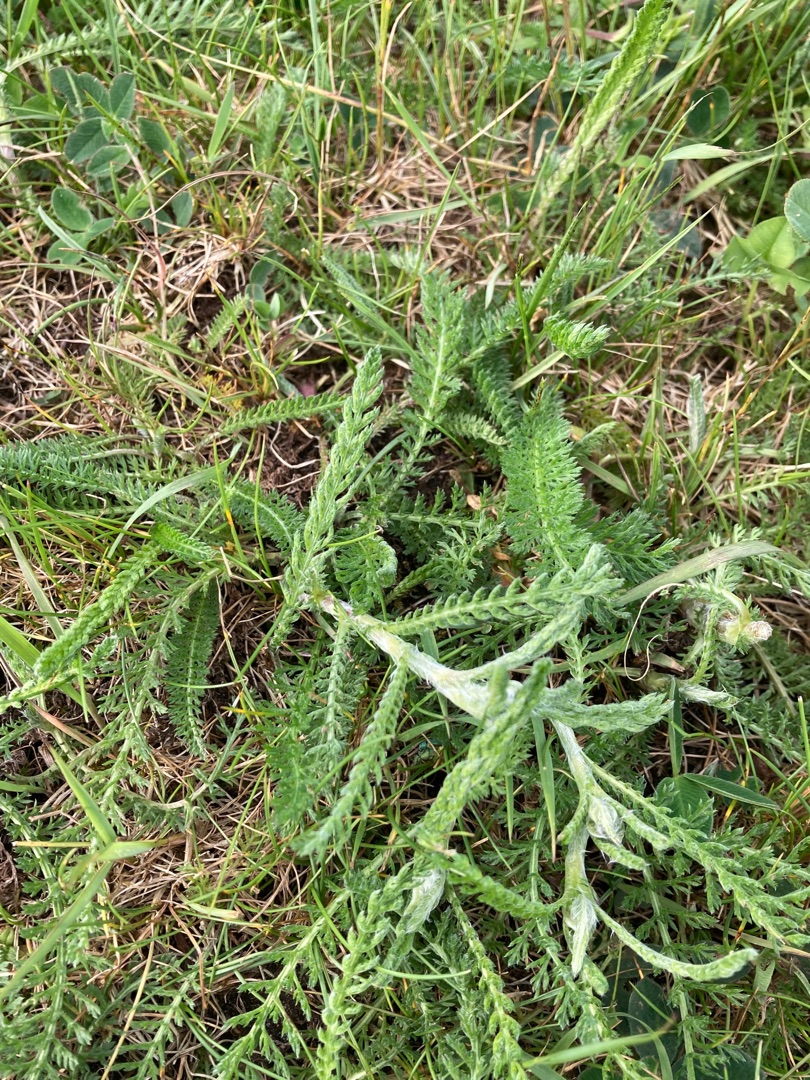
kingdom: Plantae
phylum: Tracheophyta
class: Magnoliopsida
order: Asterales
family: Asteraceae
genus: Achillea
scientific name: Achillea millefolium
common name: Almindelig røllike
